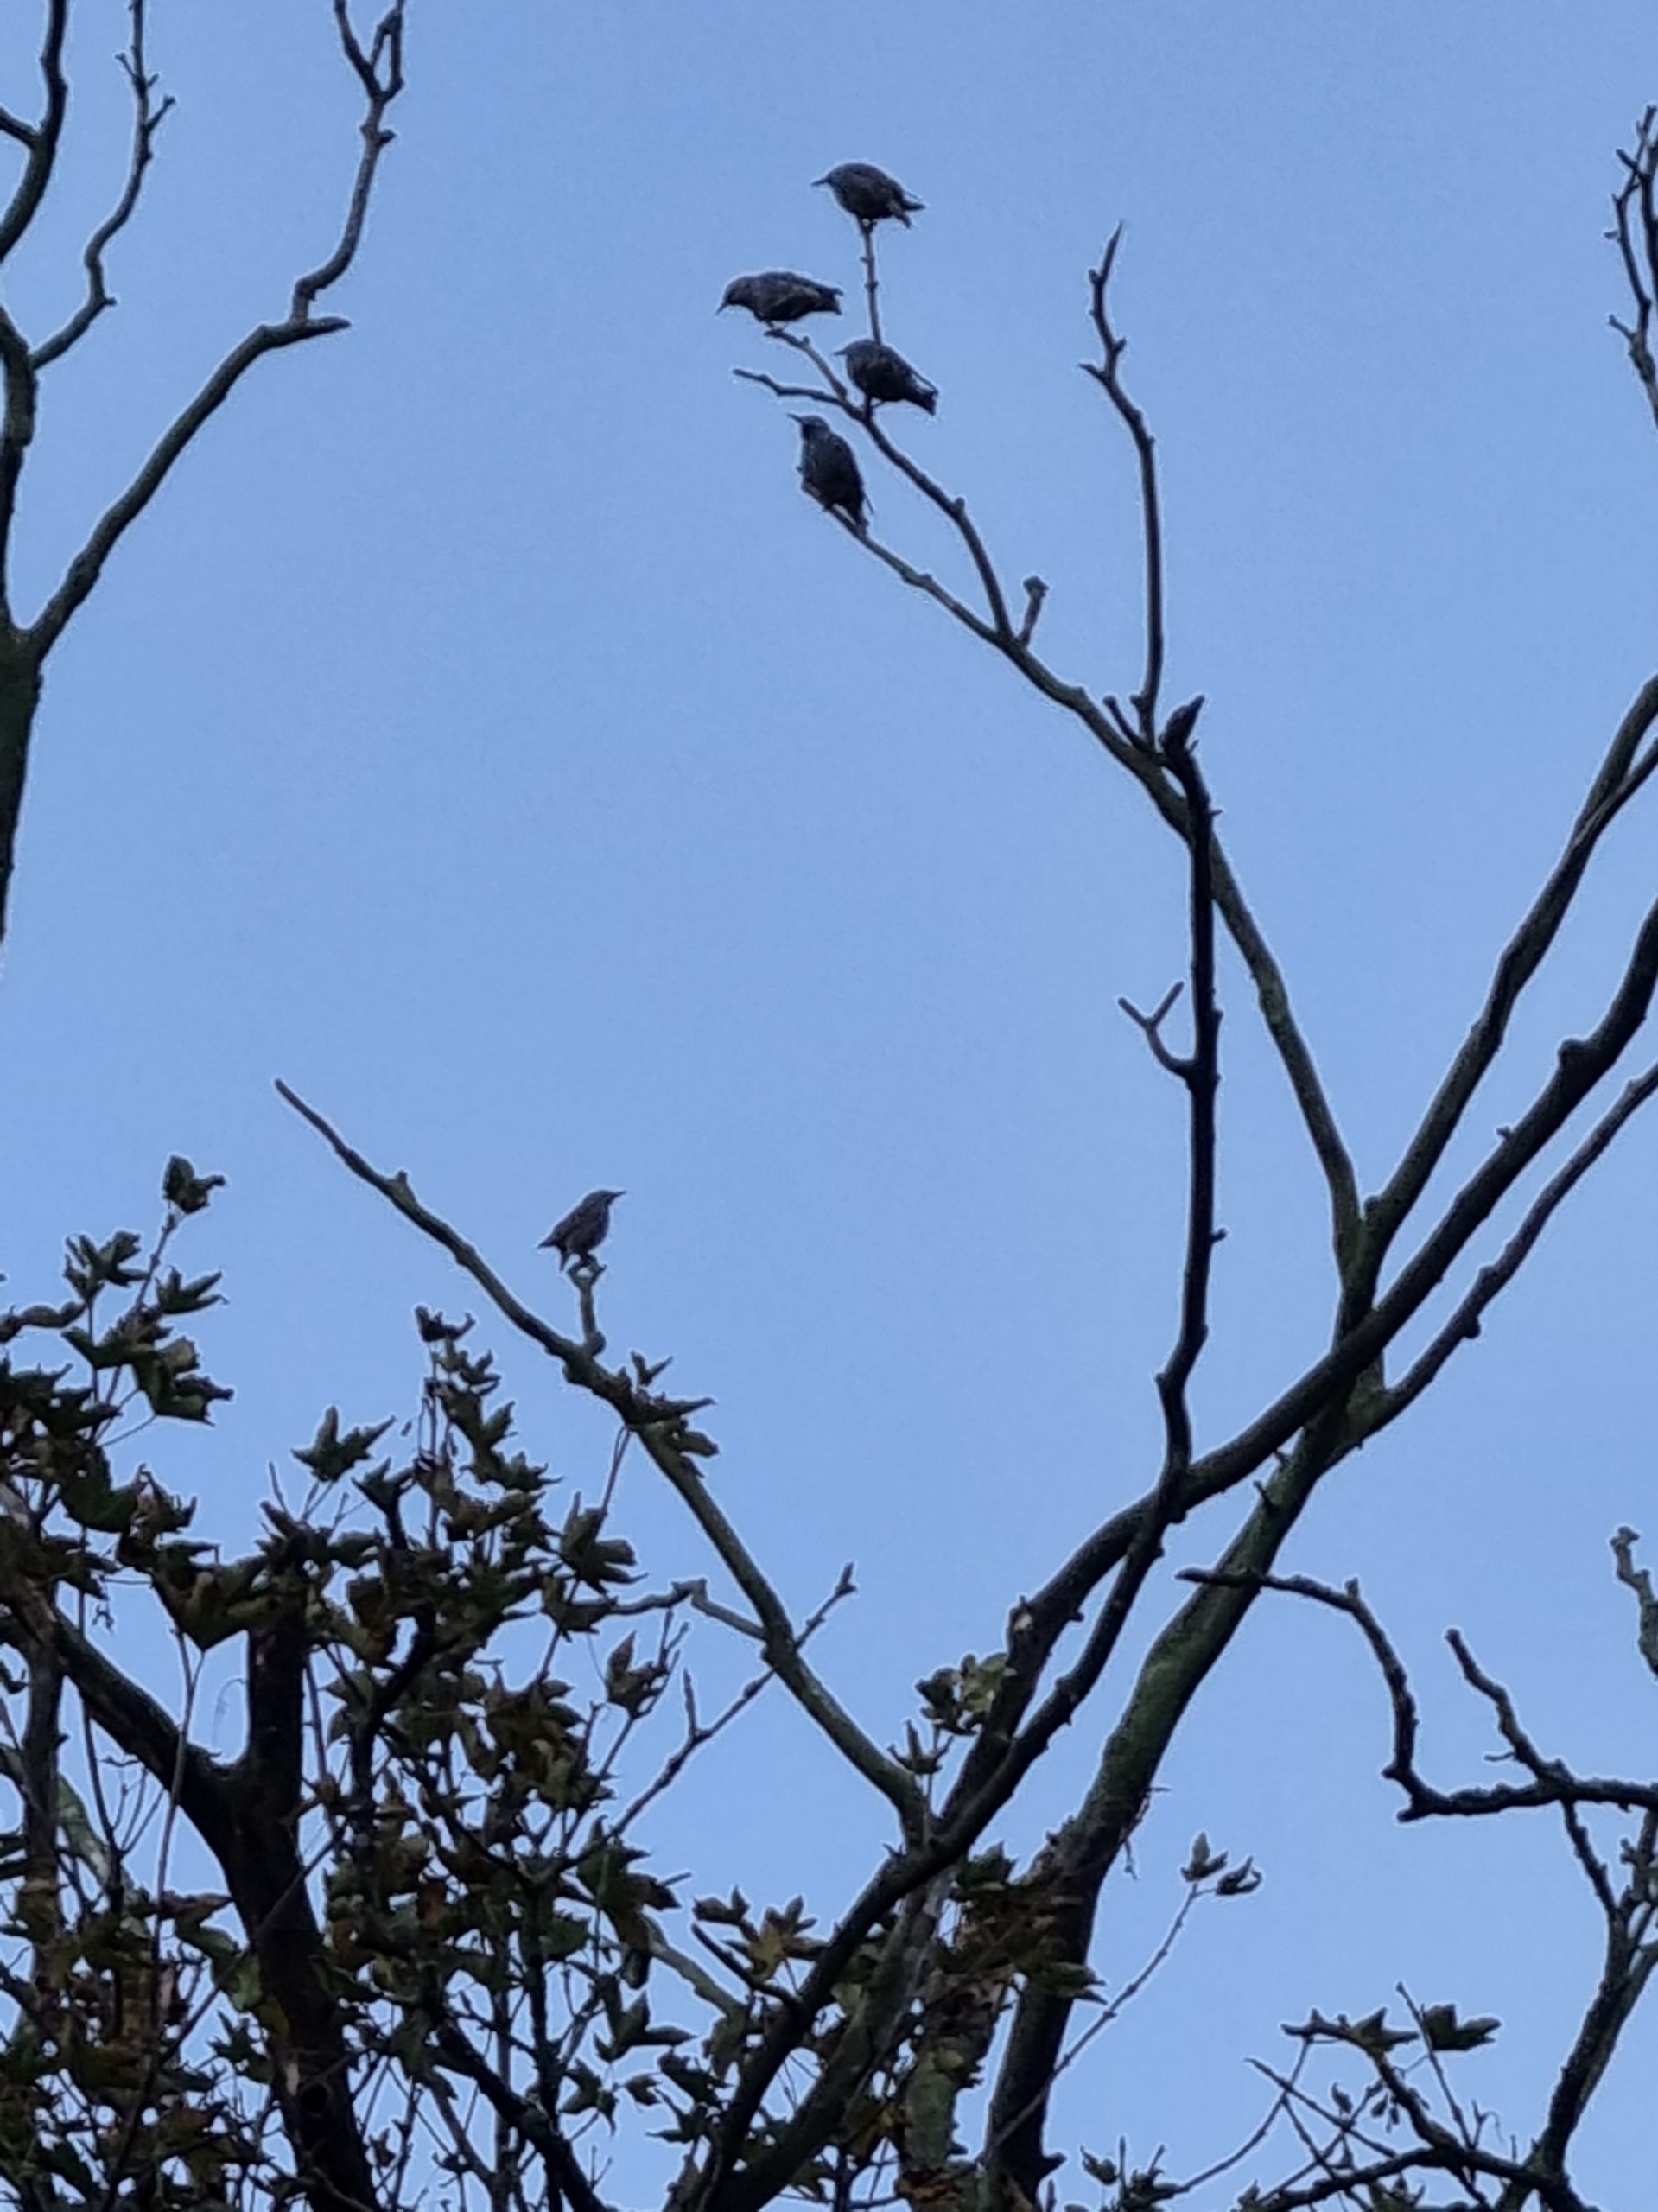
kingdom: Animalia
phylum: Chordata
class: Aves
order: Passeriformes
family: Sturnidae
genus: Sturnus
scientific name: Sturnus vulgaris
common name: Stær
